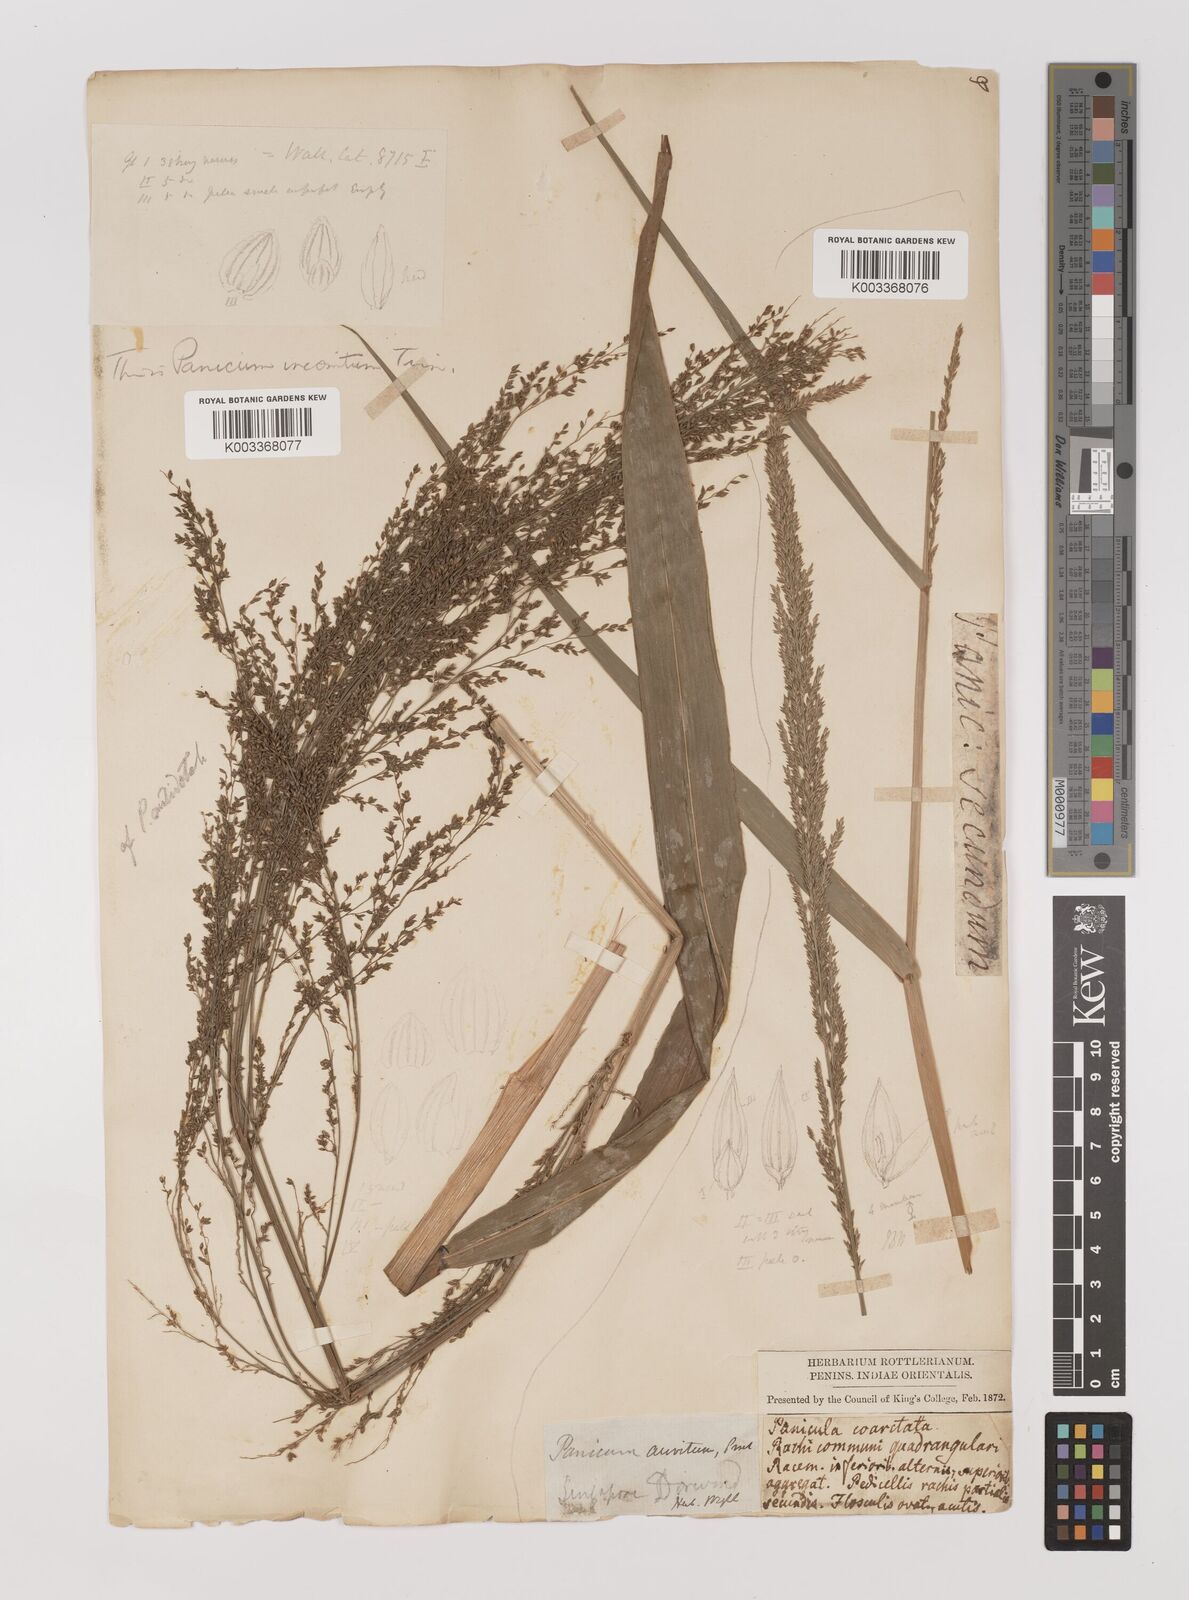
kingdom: Plantae
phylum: Tracheophyta
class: Liliopsida
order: Poales
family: Poaceae
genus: Oedochloa
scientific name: Oedochloa minarum
